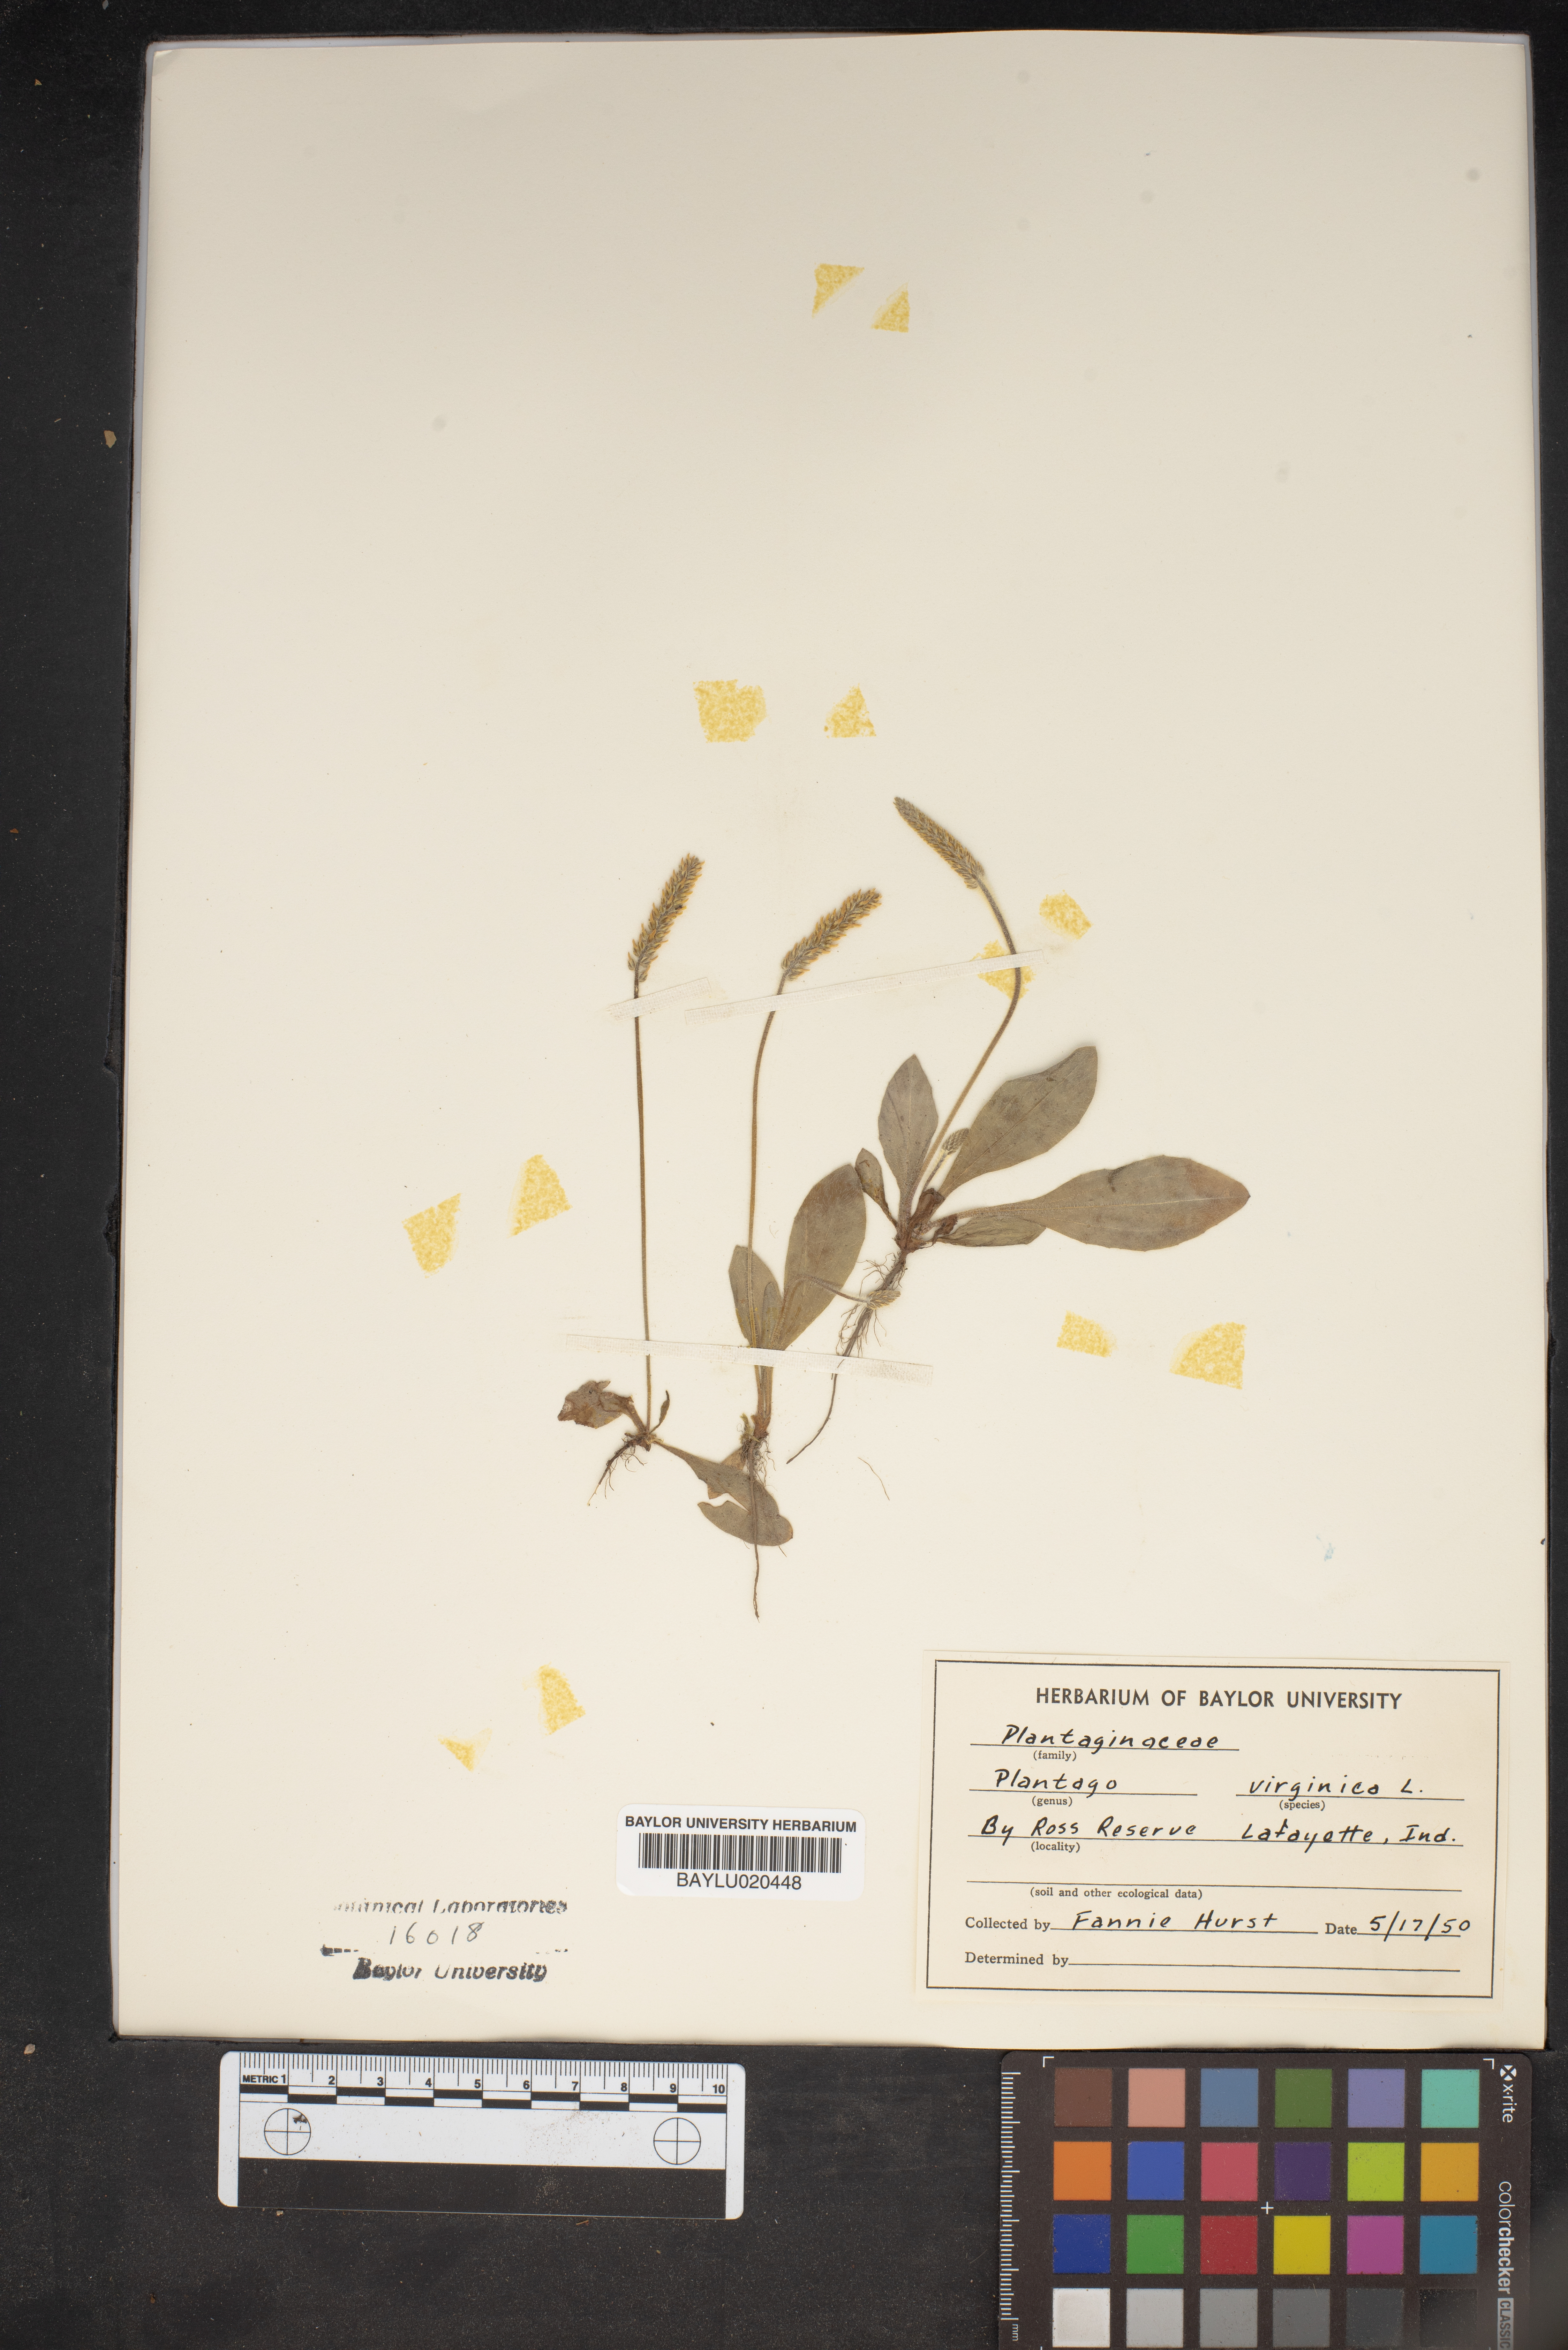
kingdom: Plantae
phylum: Tracheophyta
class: Magnoliopsida
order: Lamiales
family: Plantaginaceae
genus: Plantago
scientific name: Plantago virginica
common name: Hoary plantain
